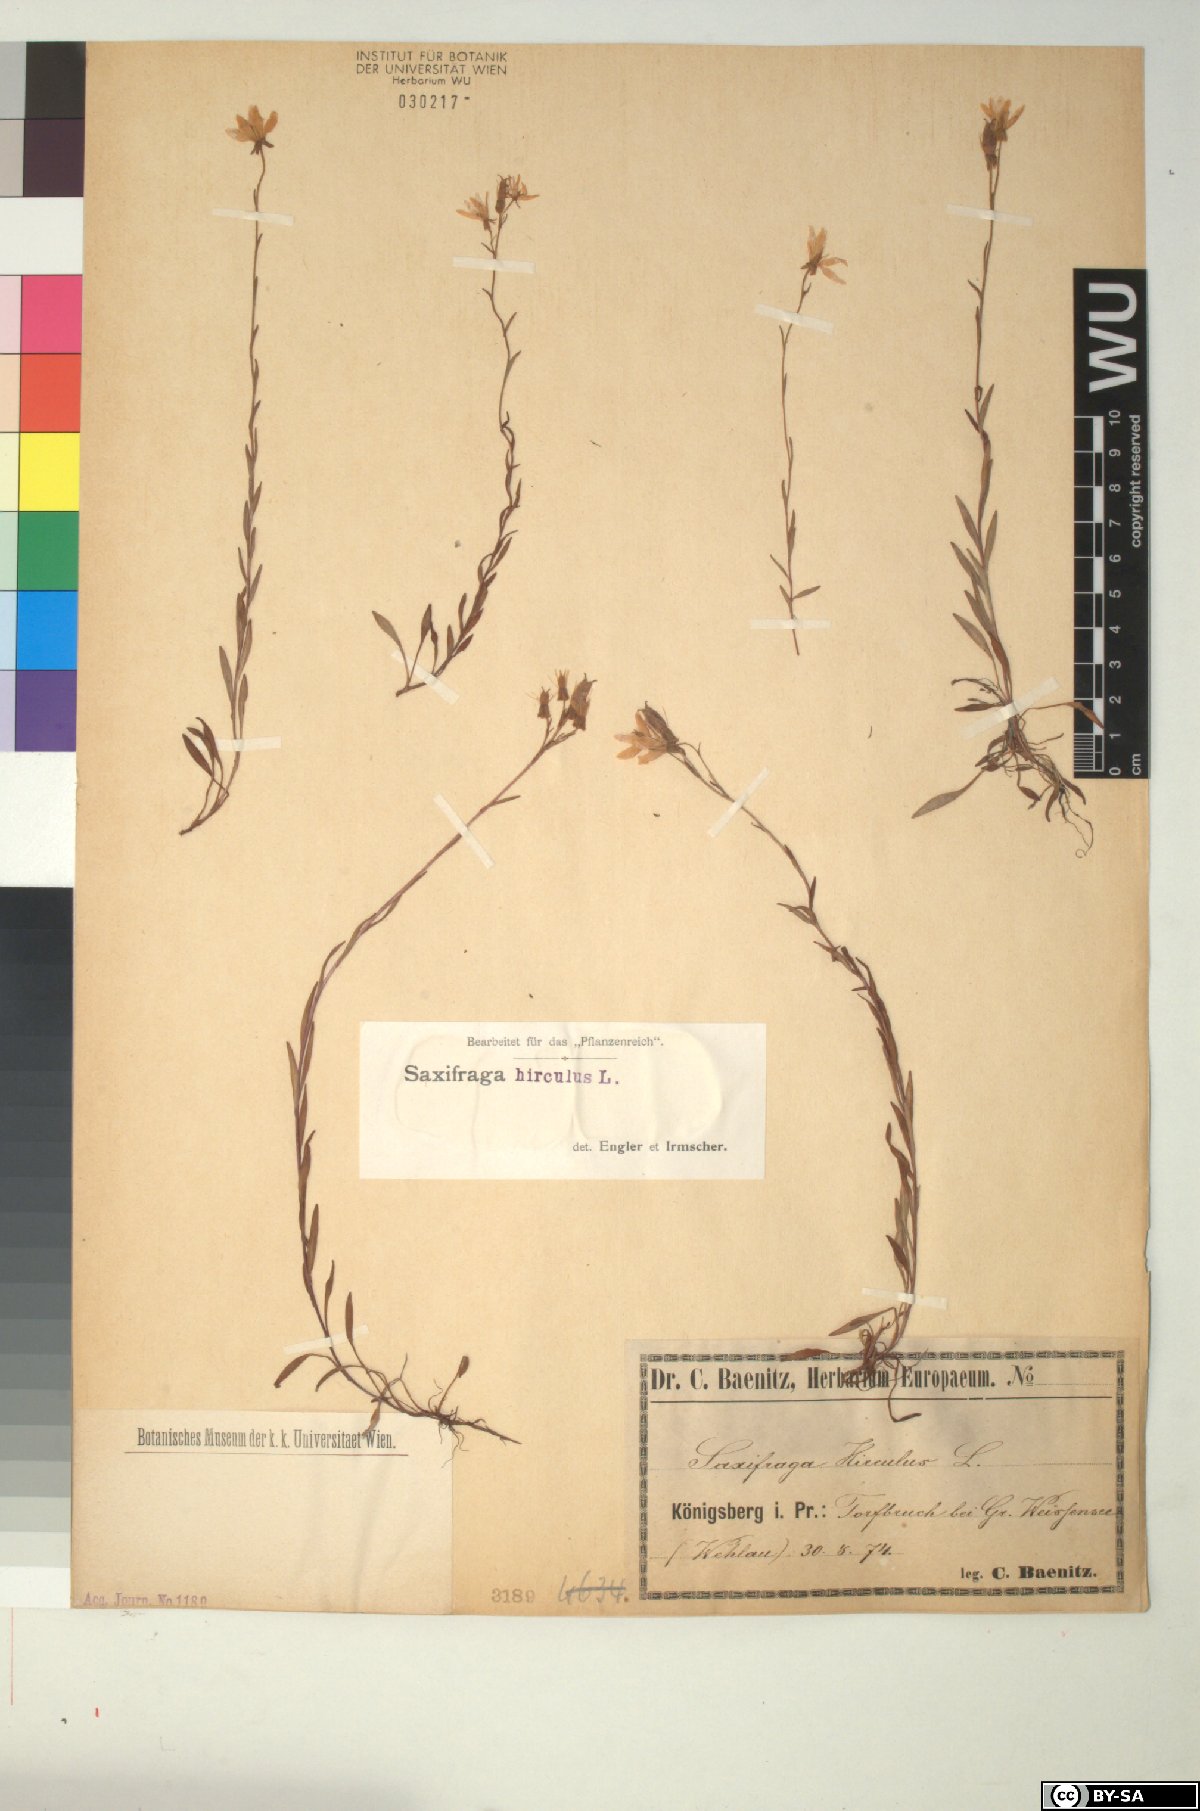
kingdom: Plantae
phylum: Tracheophyta
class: Magnoliopsida
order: Saxifragales
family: Saxifragaceae
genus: Saxifraga
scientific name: Saxifraga hirculus
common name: Yellow marsh saxifrage
